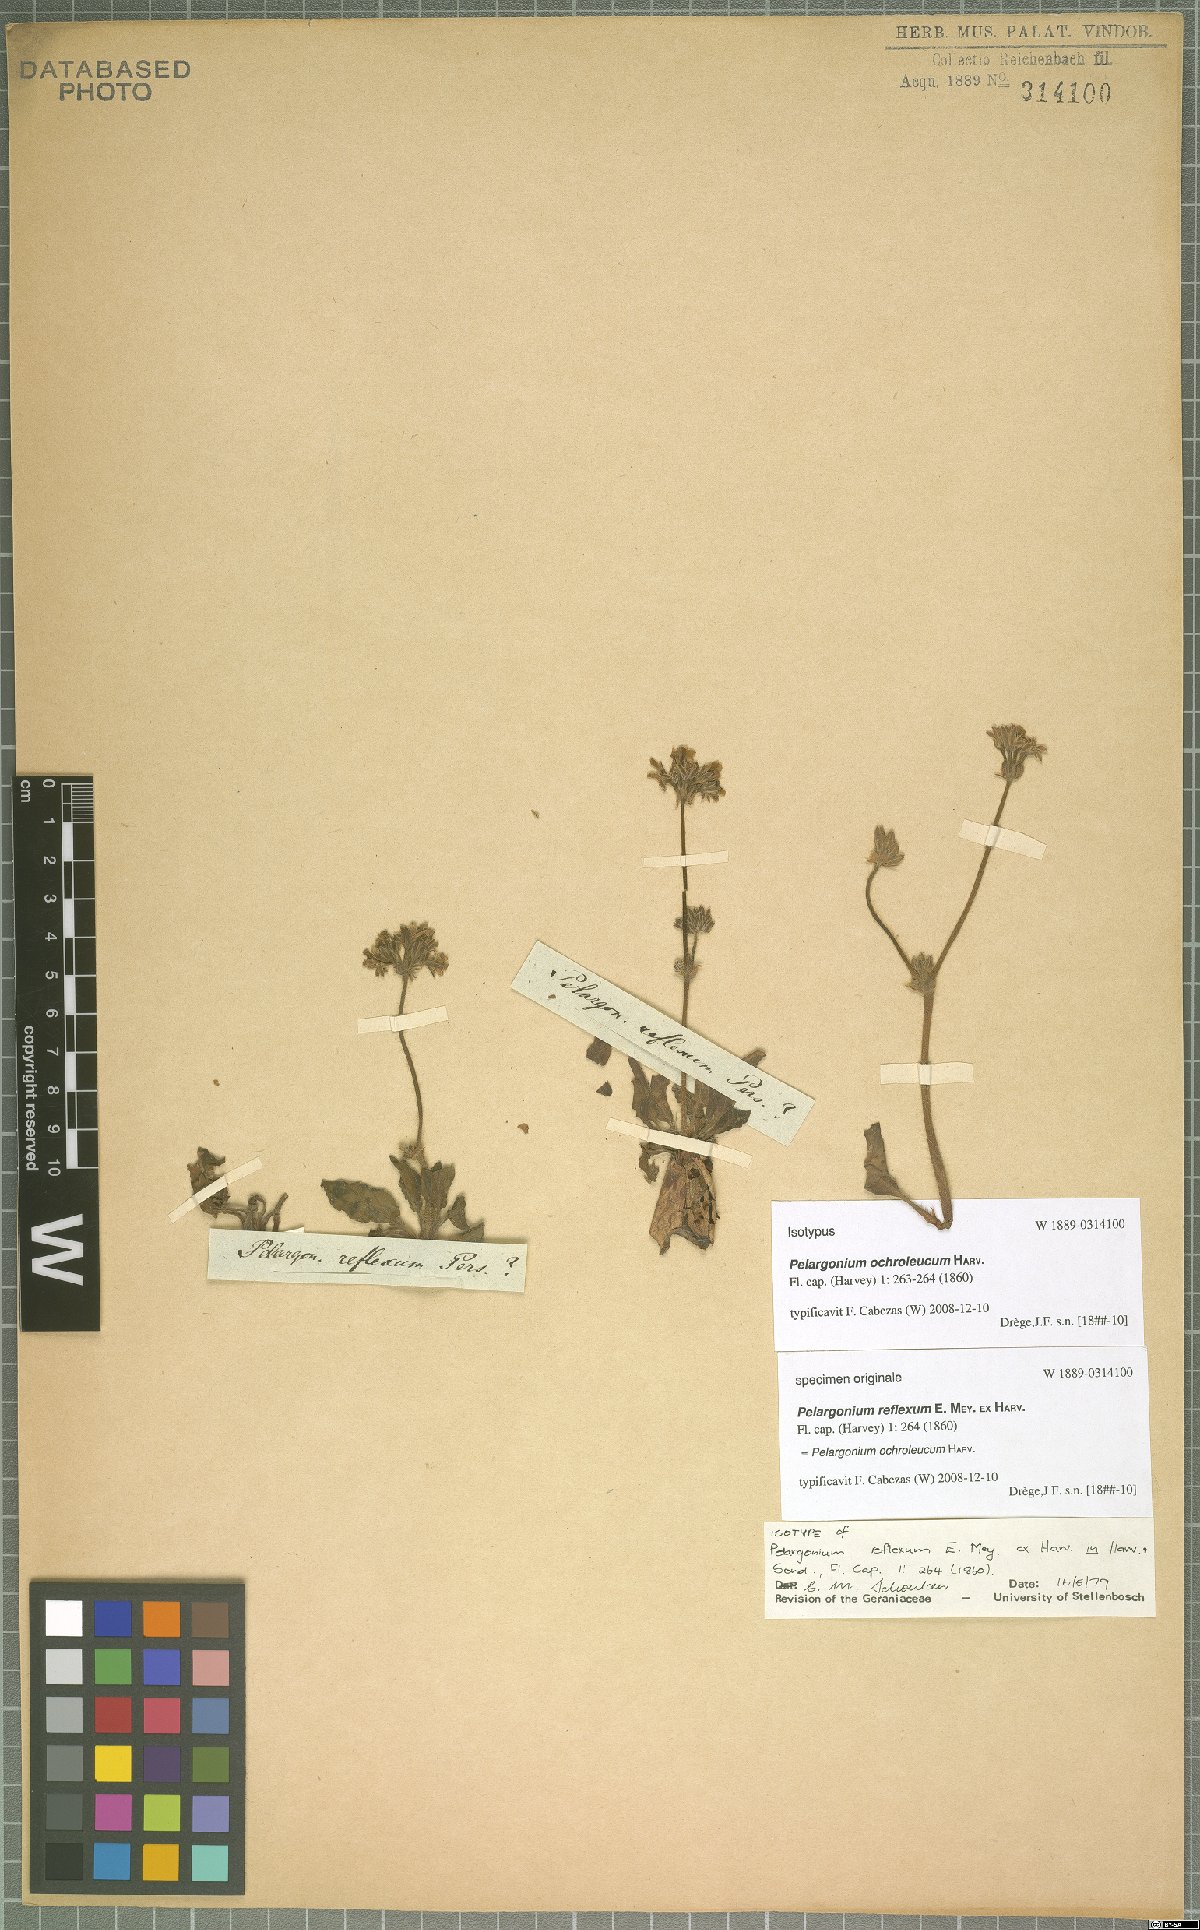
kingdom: Plantae
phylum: Tracheophyta
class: Magnoliopsida
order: Geraniales
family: Geraniaceae
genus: Pelargonium
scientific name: Pelargonium ochroleucum
